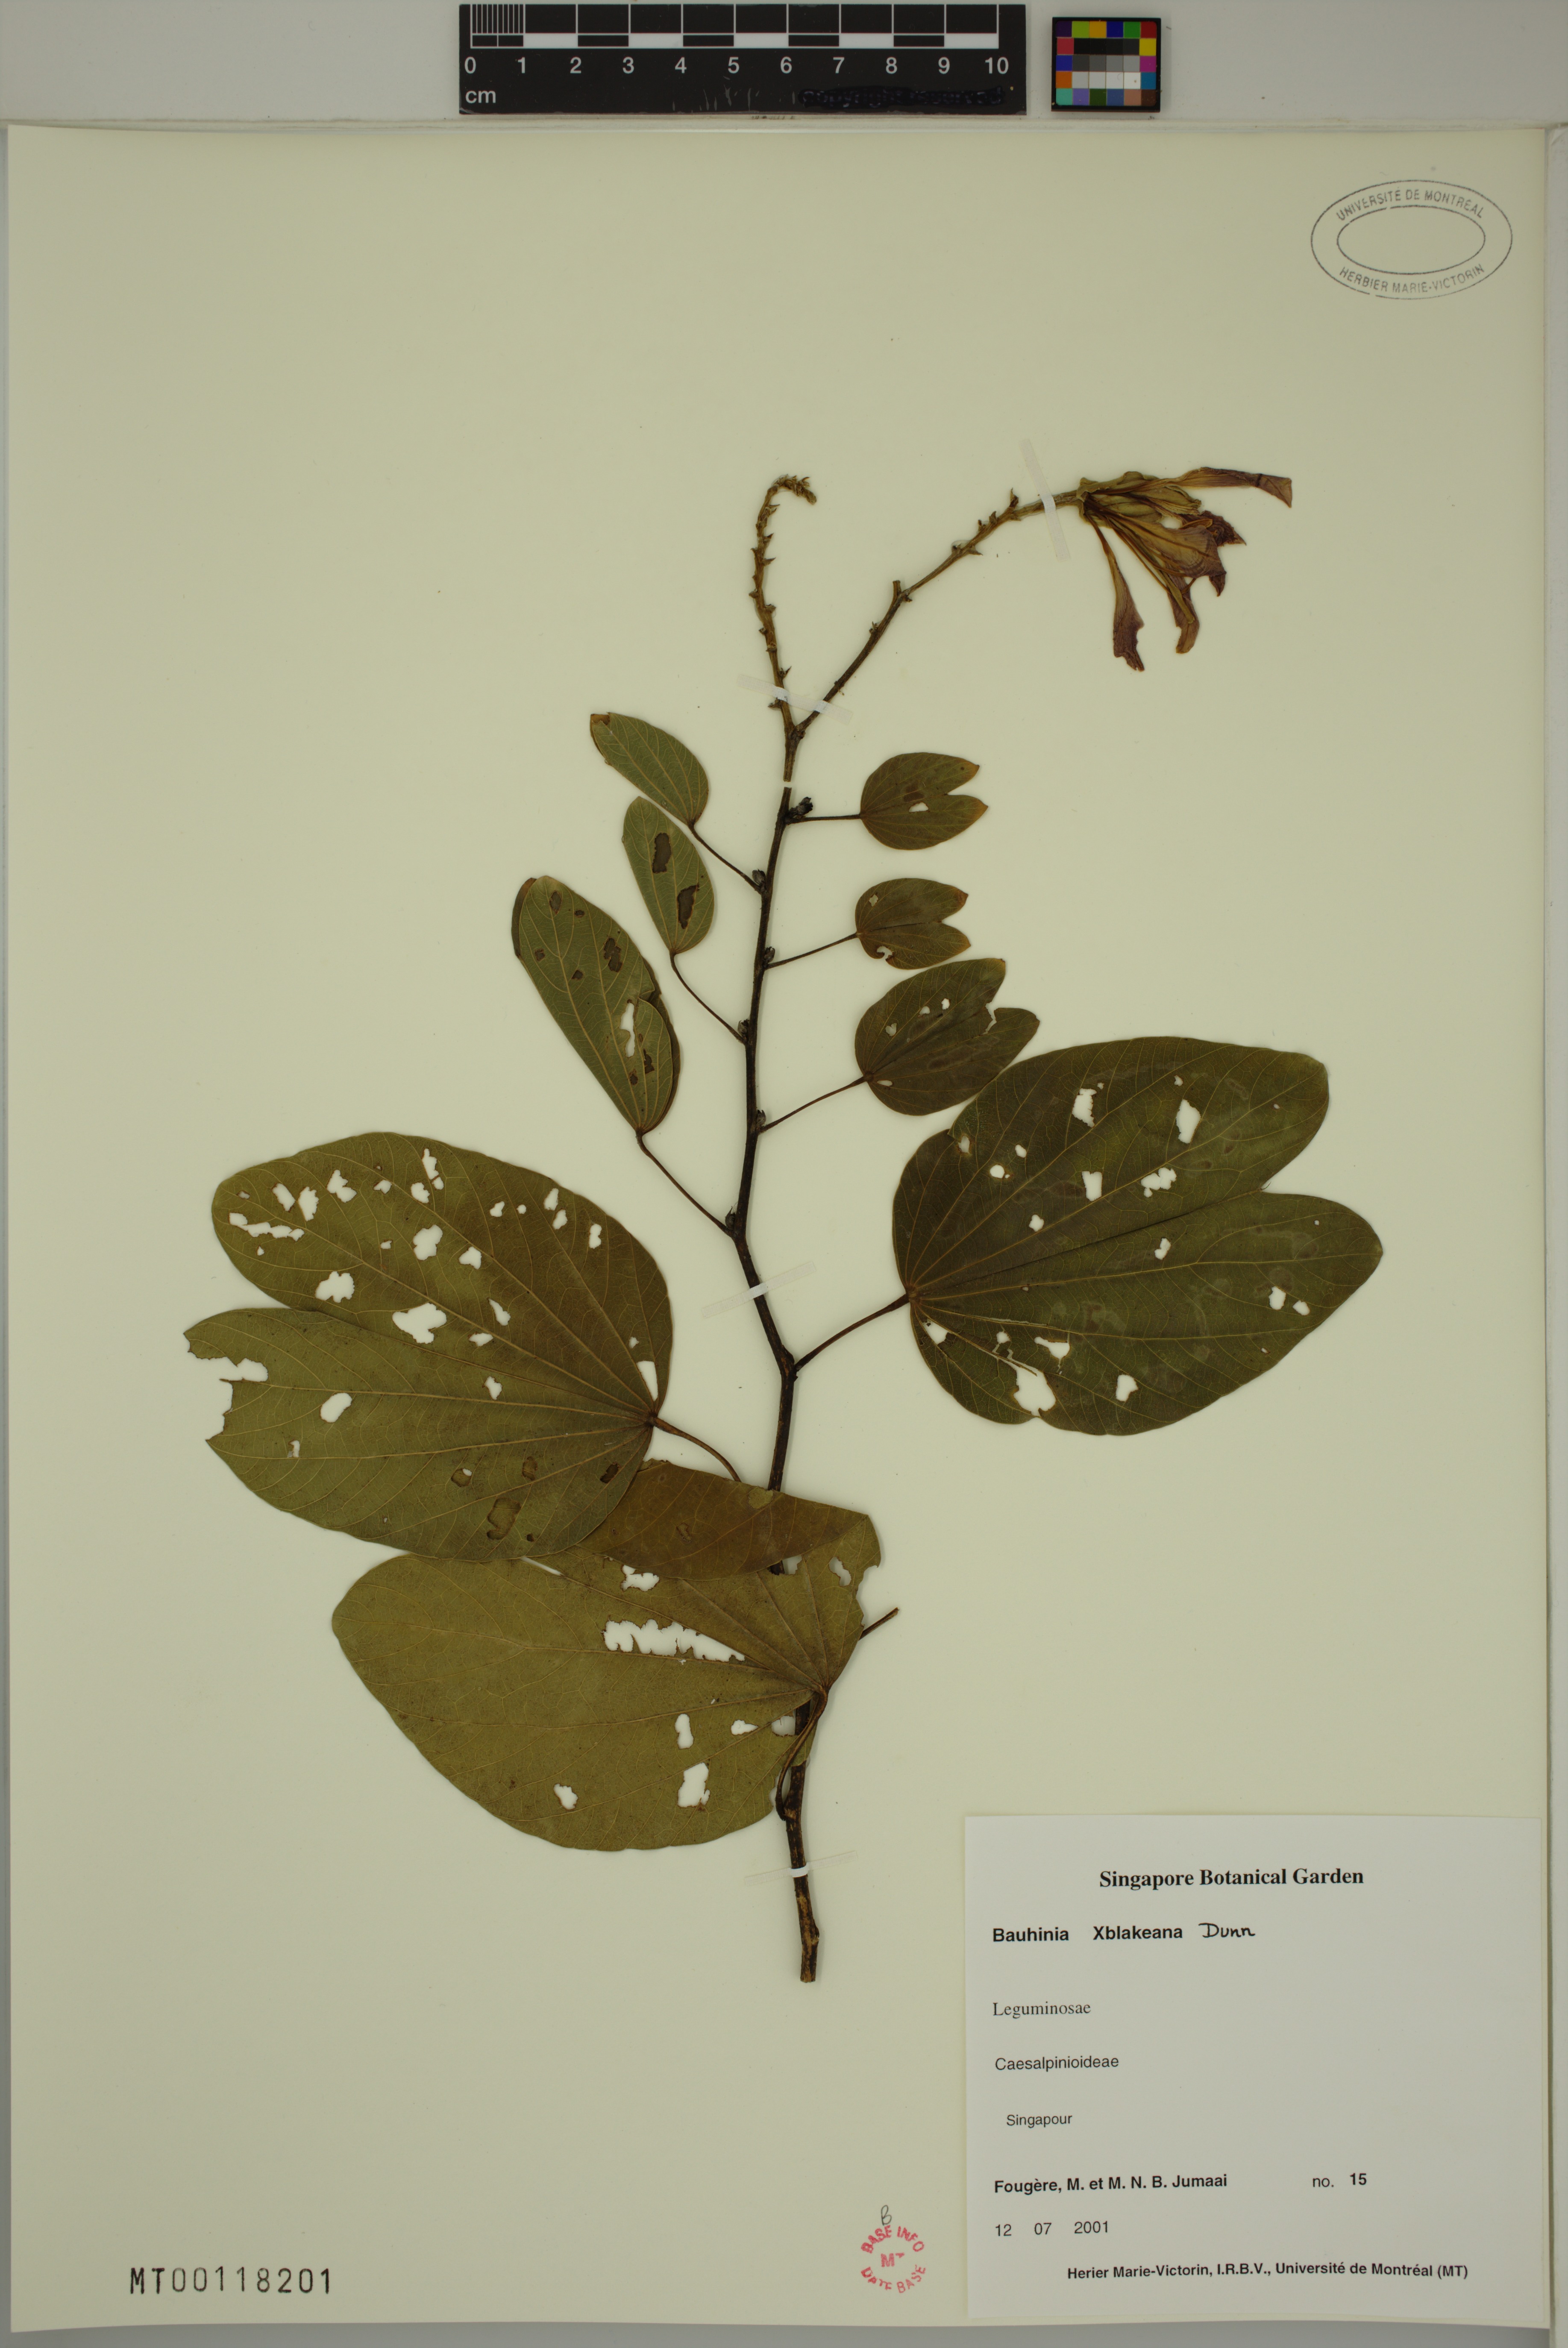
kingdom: Plantae
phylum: Tracheophyta
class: Magnoliopsida
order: Fabales
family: Fabaceae
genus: Bauhinia
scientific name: Bauhinia blakeana
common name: Bauhinia
